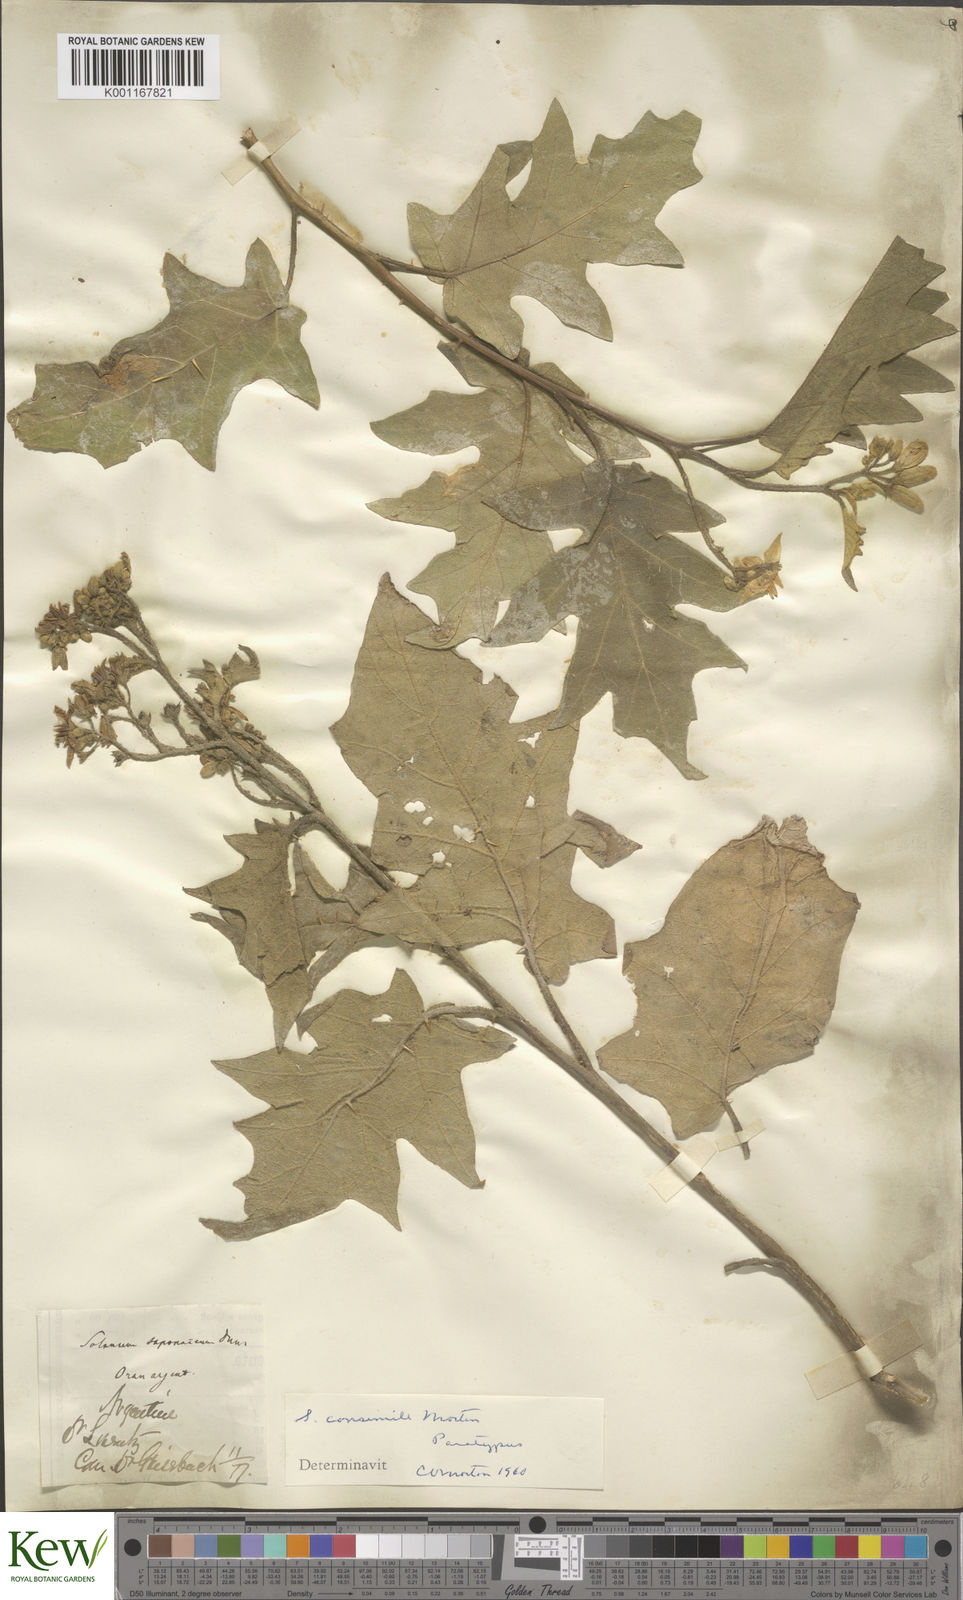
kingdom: Plantae
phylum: Tracheophyta
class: Magnoliopsida
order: Solanales
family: Solanaceae
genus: Solanum
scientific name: Solanum consimile
